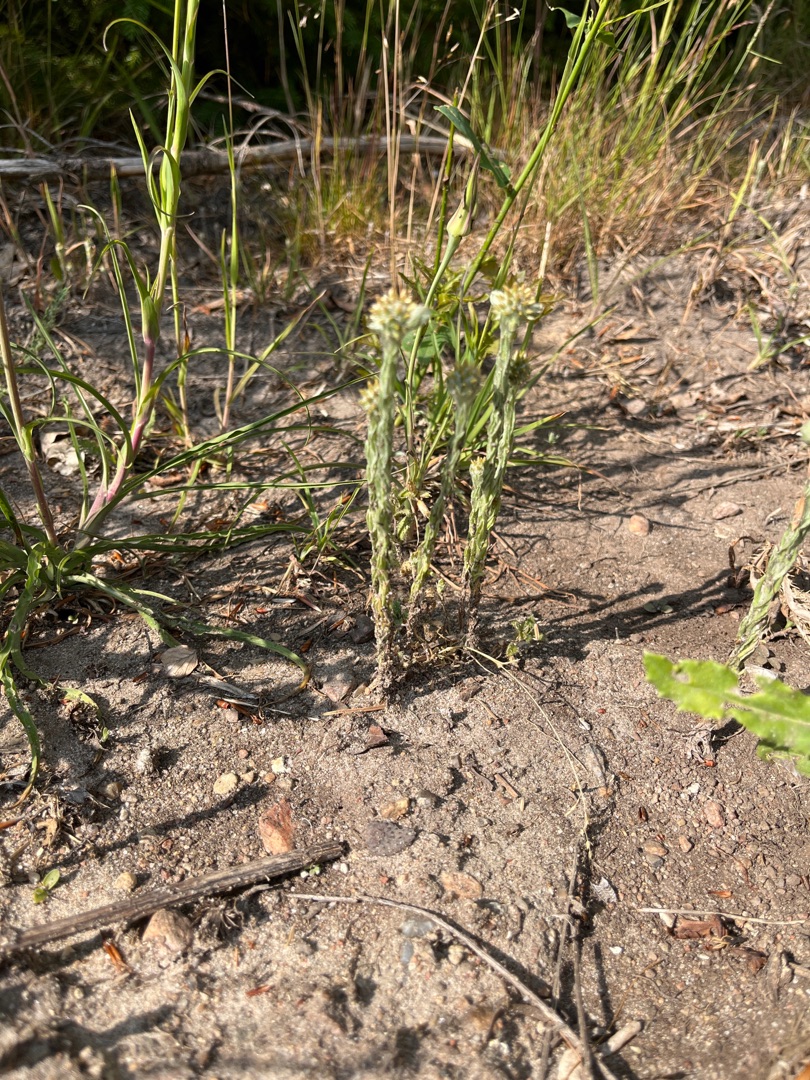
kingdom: Plantae
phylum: Tracheophyta
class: Magnoliopsida
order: Asterales
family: Asteraceae
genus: Filago
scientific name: Filago germanica
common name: Kugle-museurt
